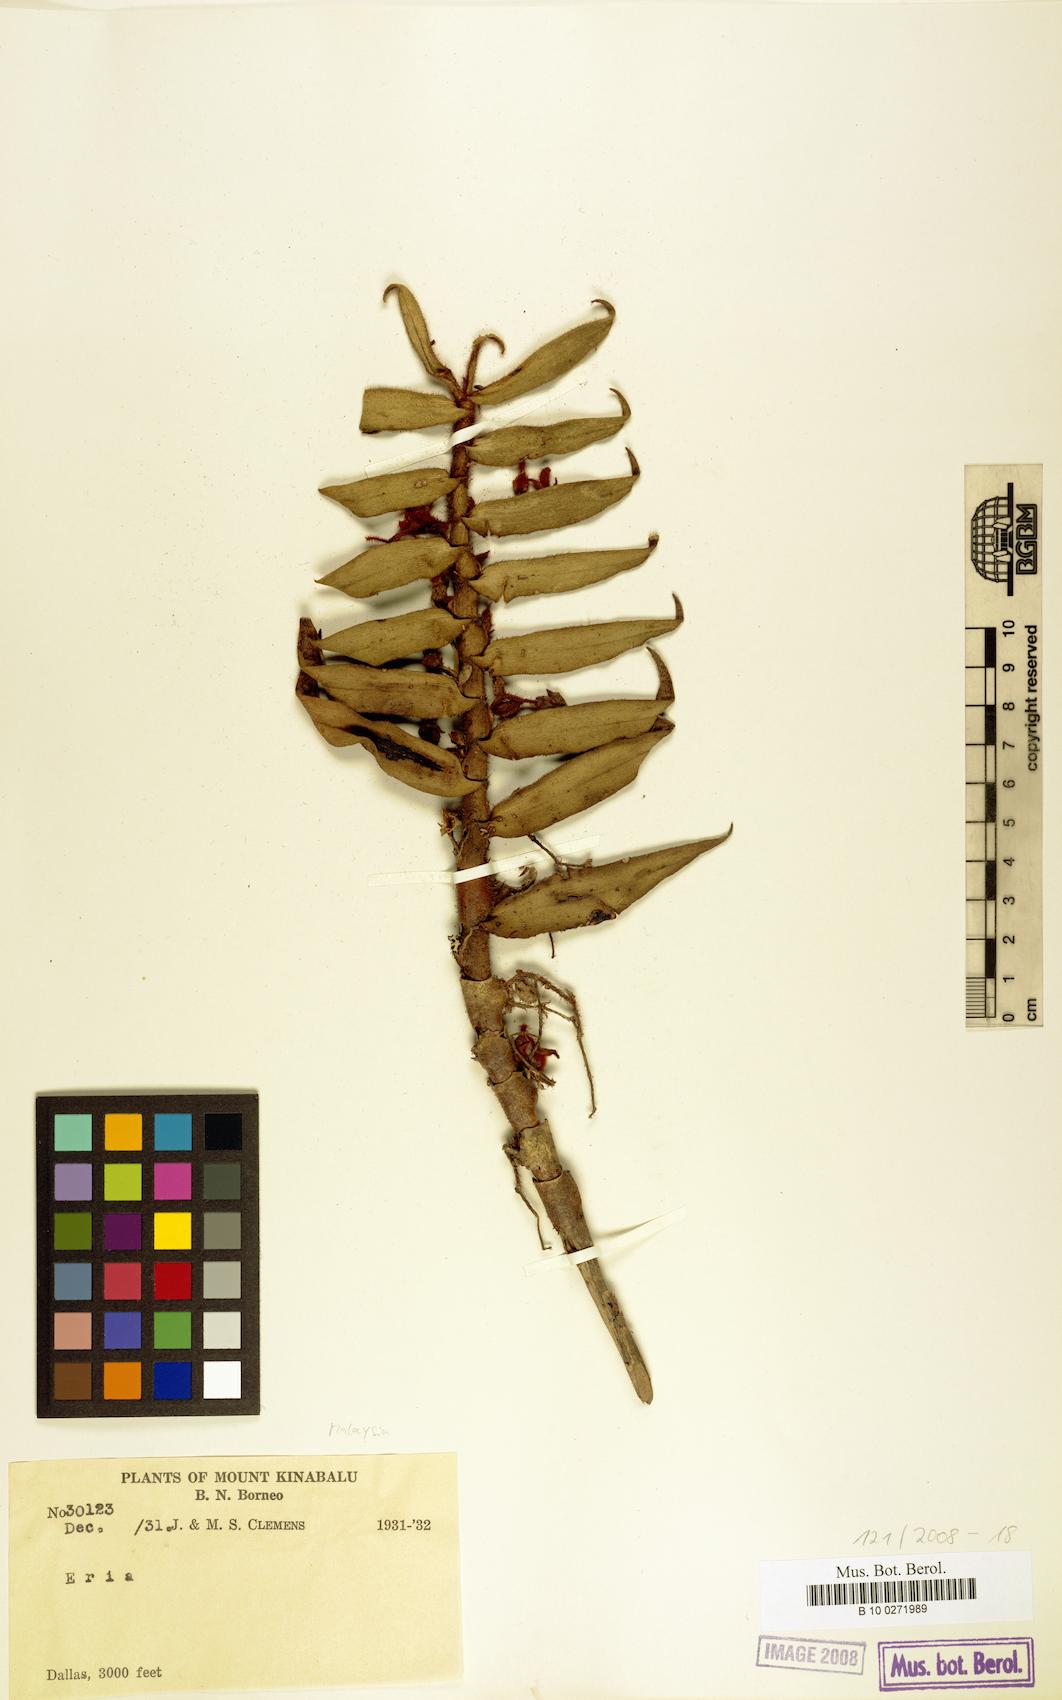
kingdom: Plantae
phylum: Tracheophyta
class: Liliopsida
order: Asparagales
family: Orchidaceae
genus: Eria
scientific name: Eria
